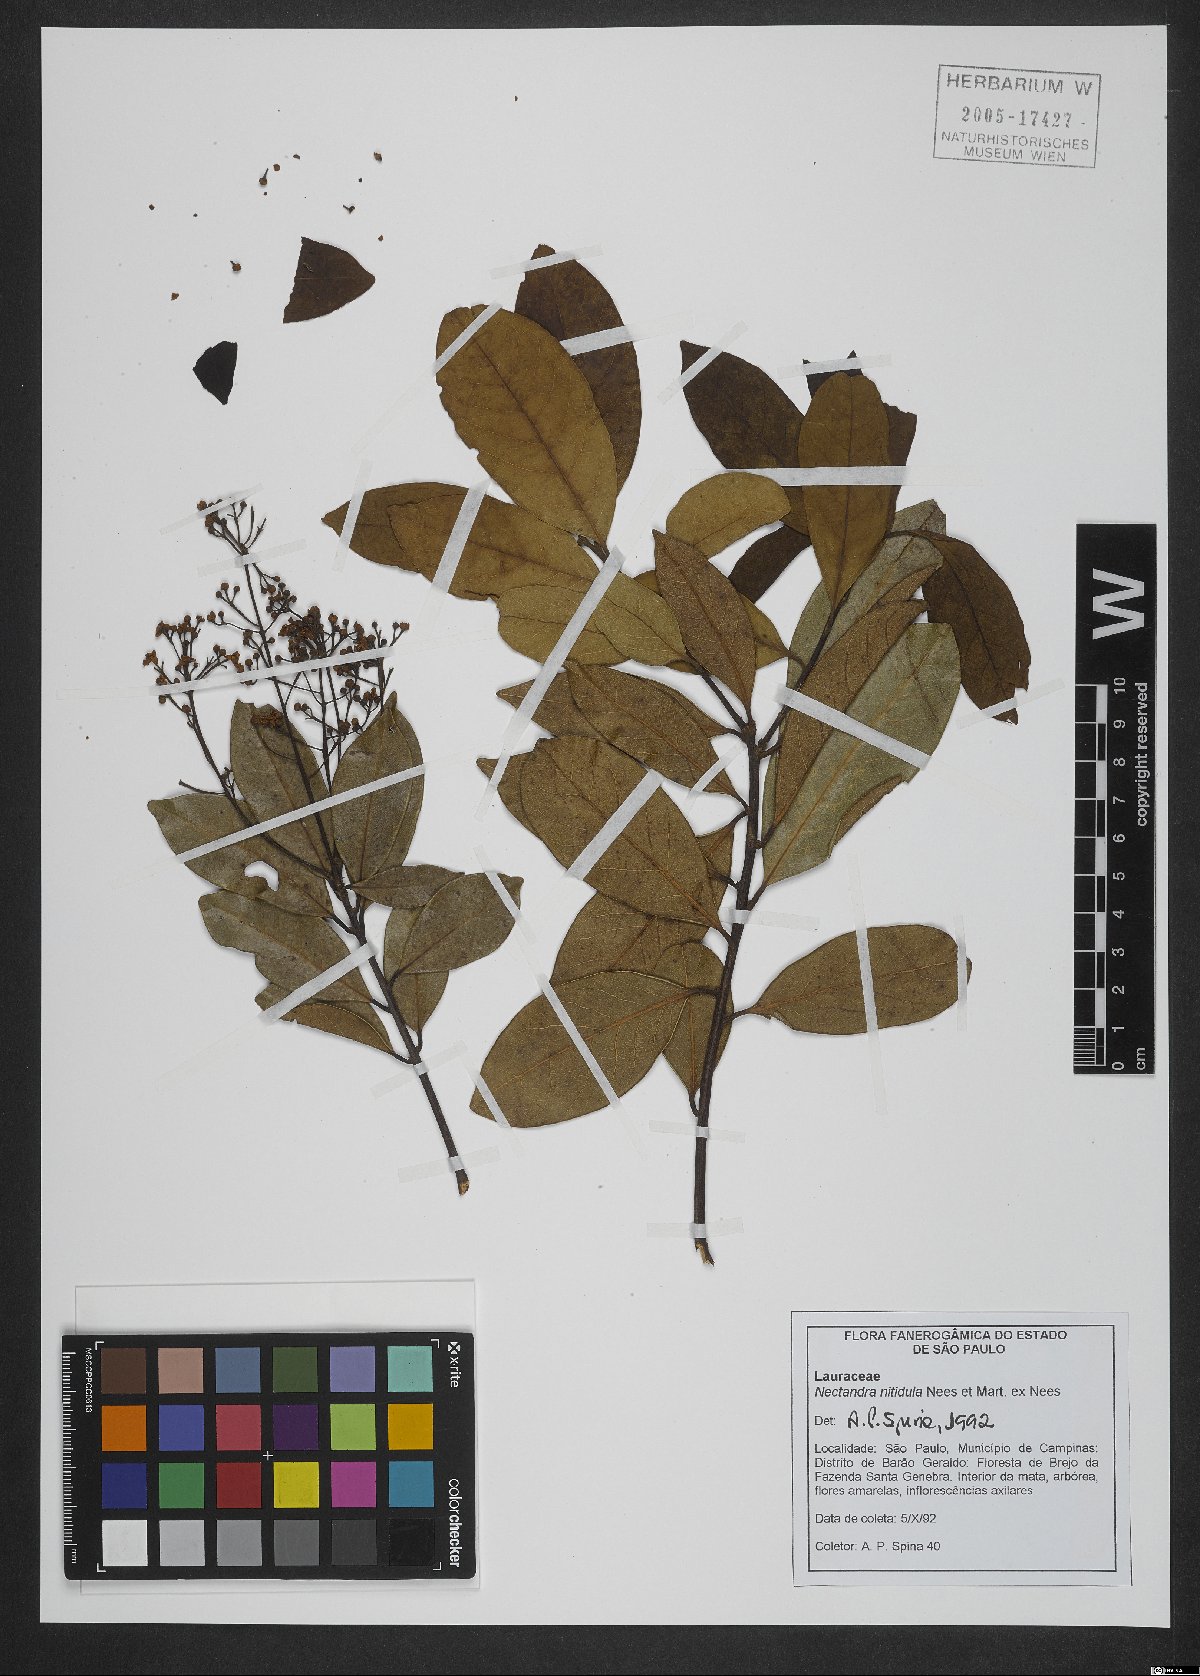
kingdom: Plantae
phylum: Tracheophyta
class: Magnoliopsida
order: Laurales
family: Lauraceae
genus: Nectandra
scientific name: Nectandra nitidula
